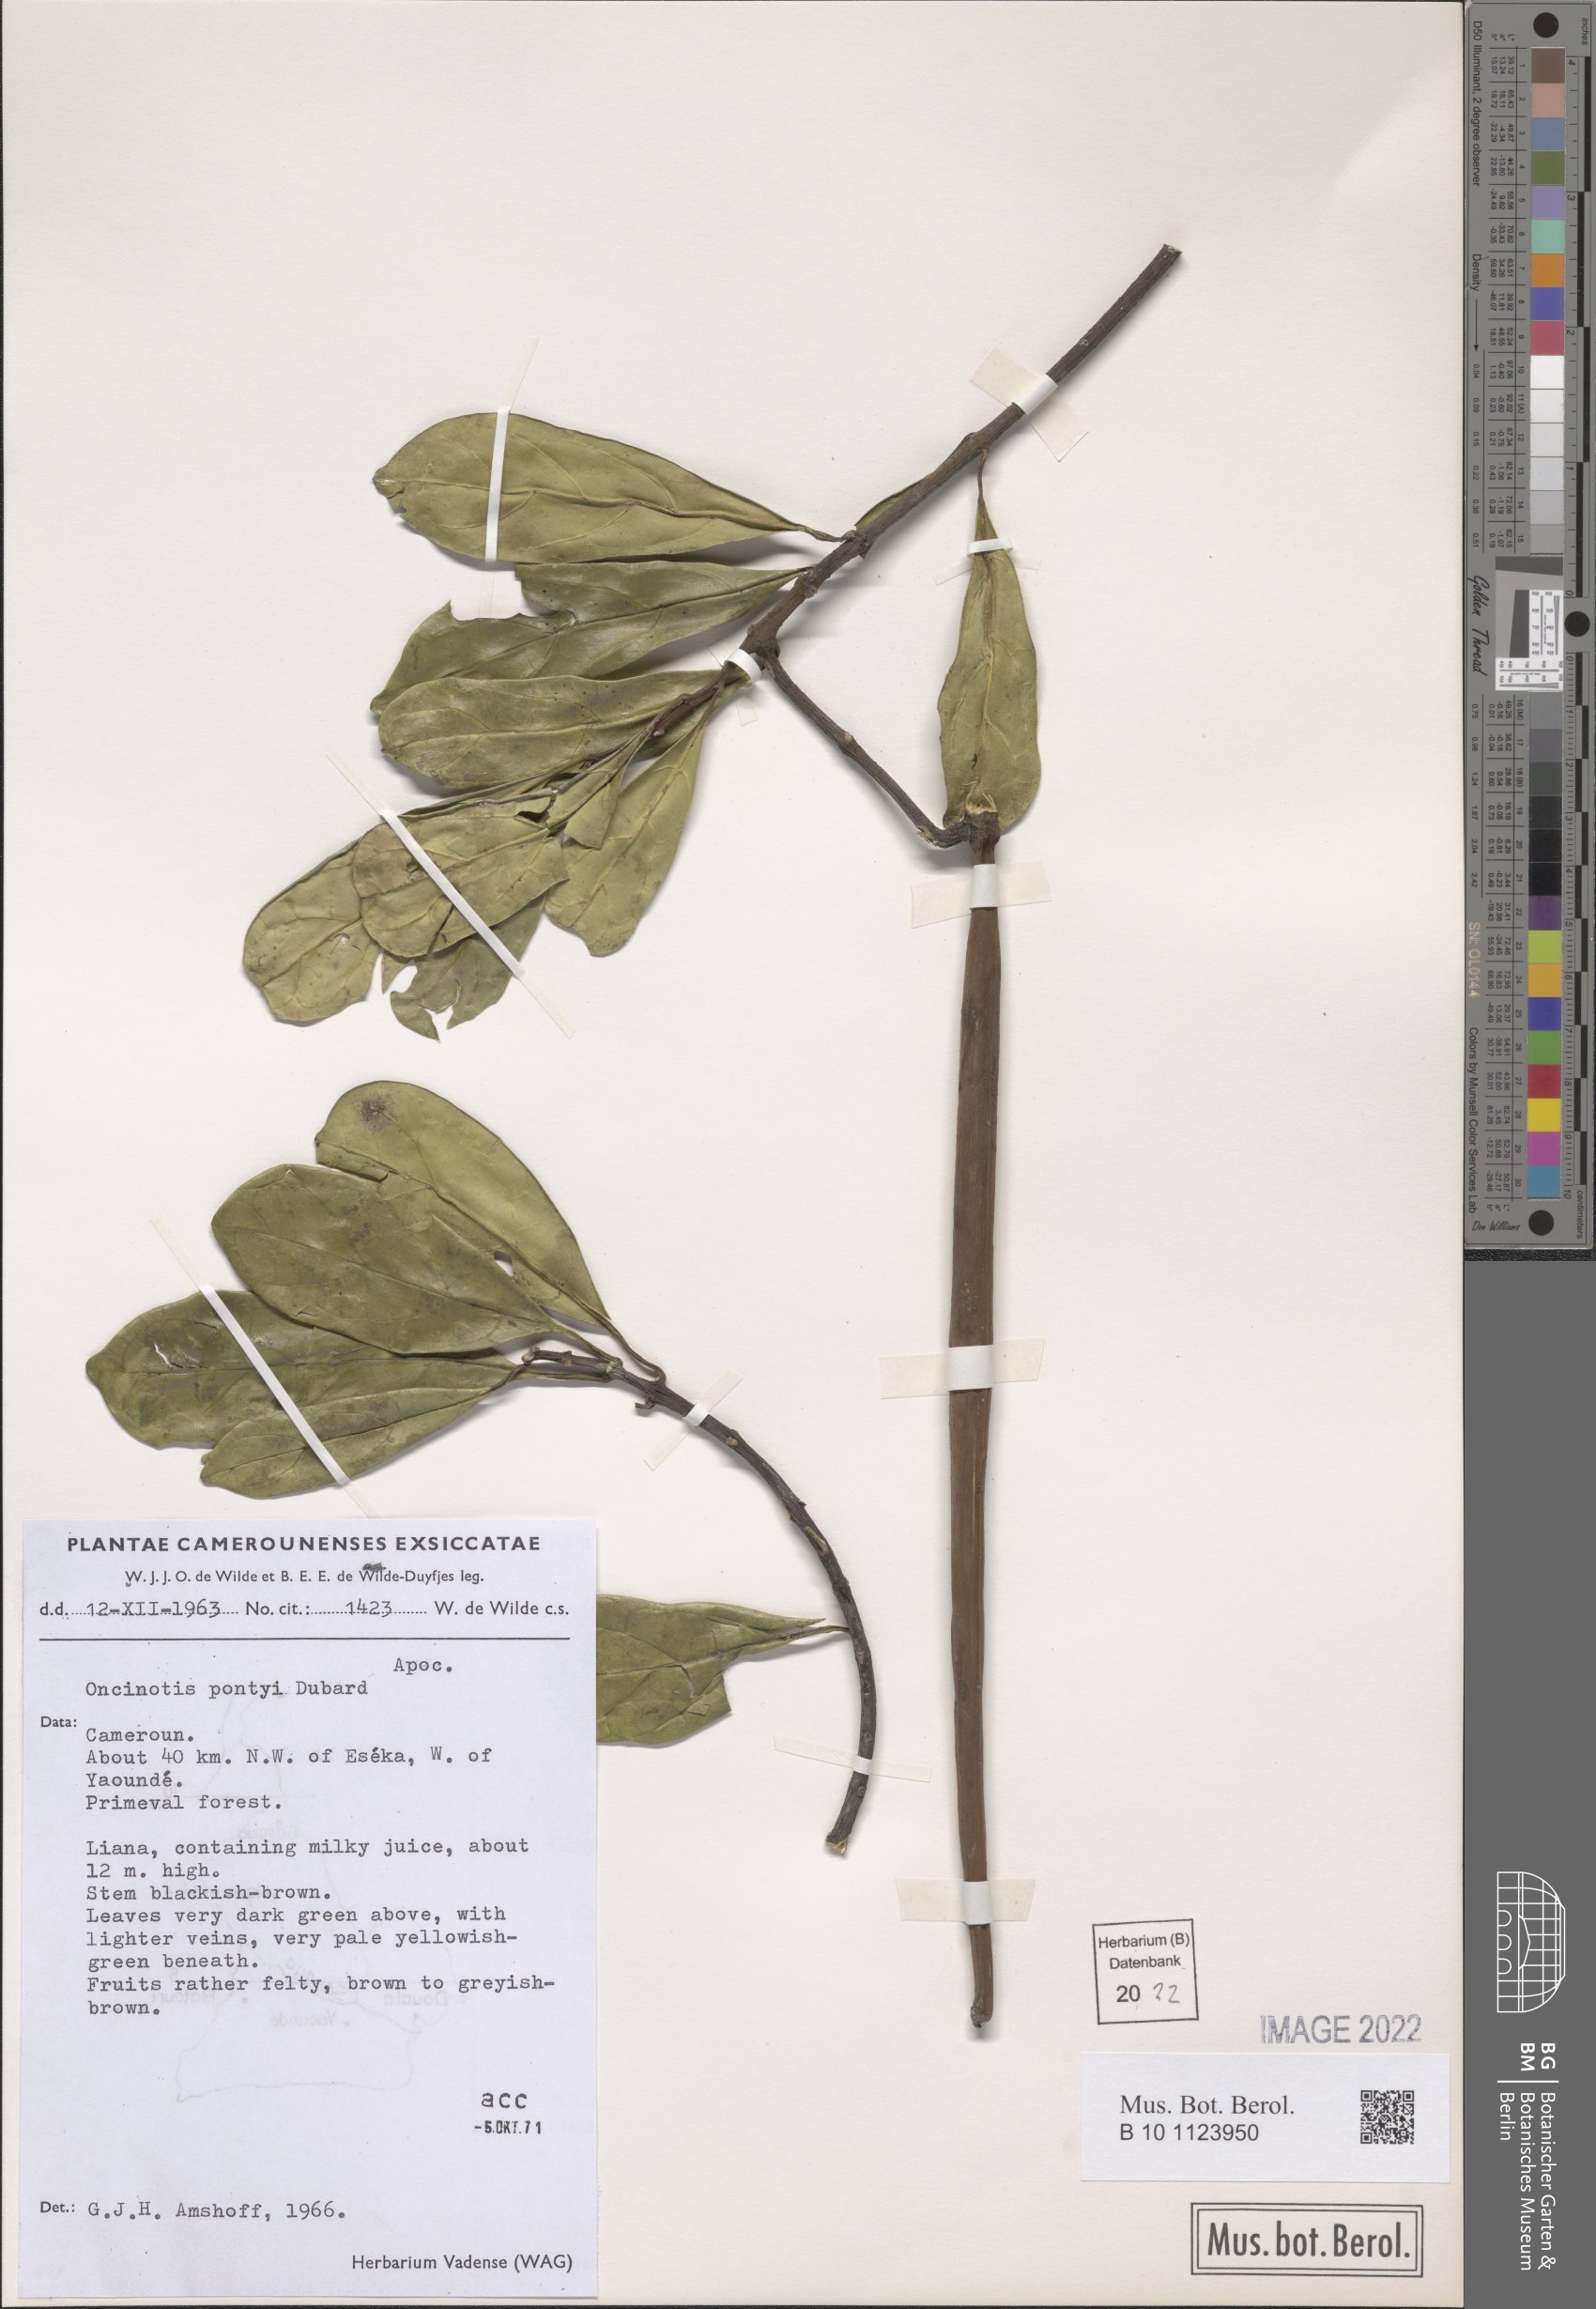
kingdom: Plantae
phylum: Tracheophyta
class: Magnoliopsida
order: Gentianales
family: Apocynaceae
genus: Oncinotis
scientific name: Oncinotis pontyi
